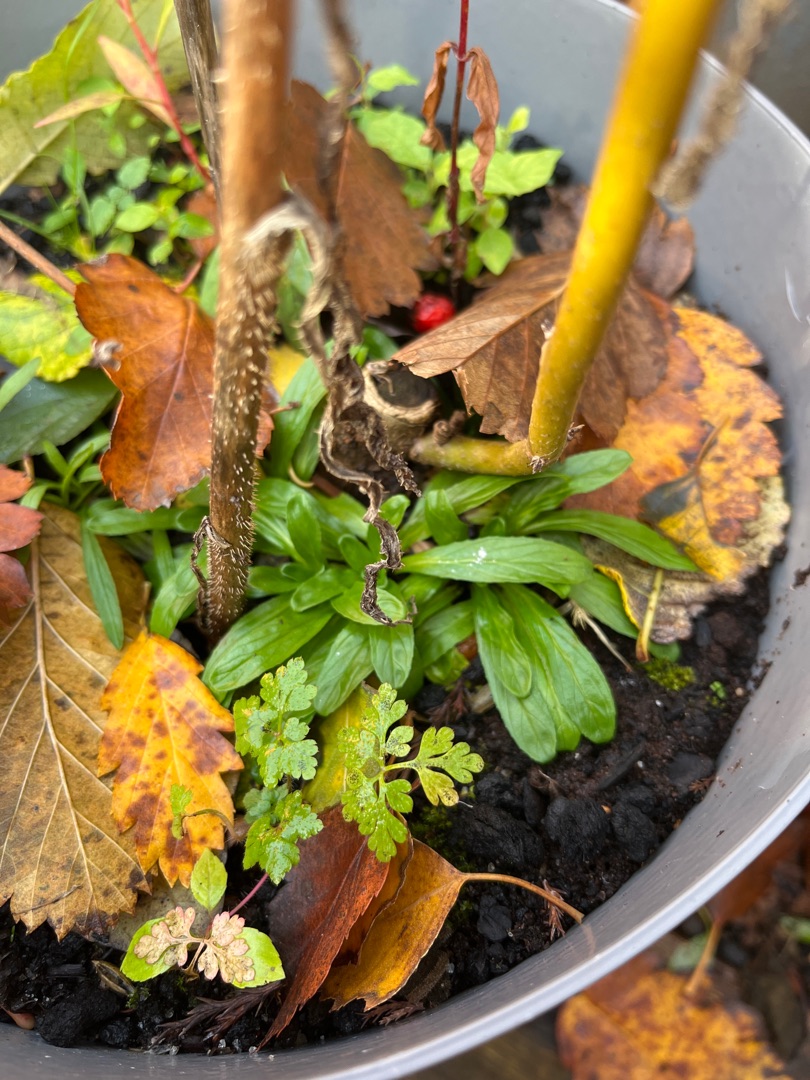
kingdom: Plantae
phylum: Tracheophyta
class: Magnoliopsida
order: Myrtales
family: Onagraceae
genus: Epilobium
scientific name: Epilobium
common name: Dueurtslægten
